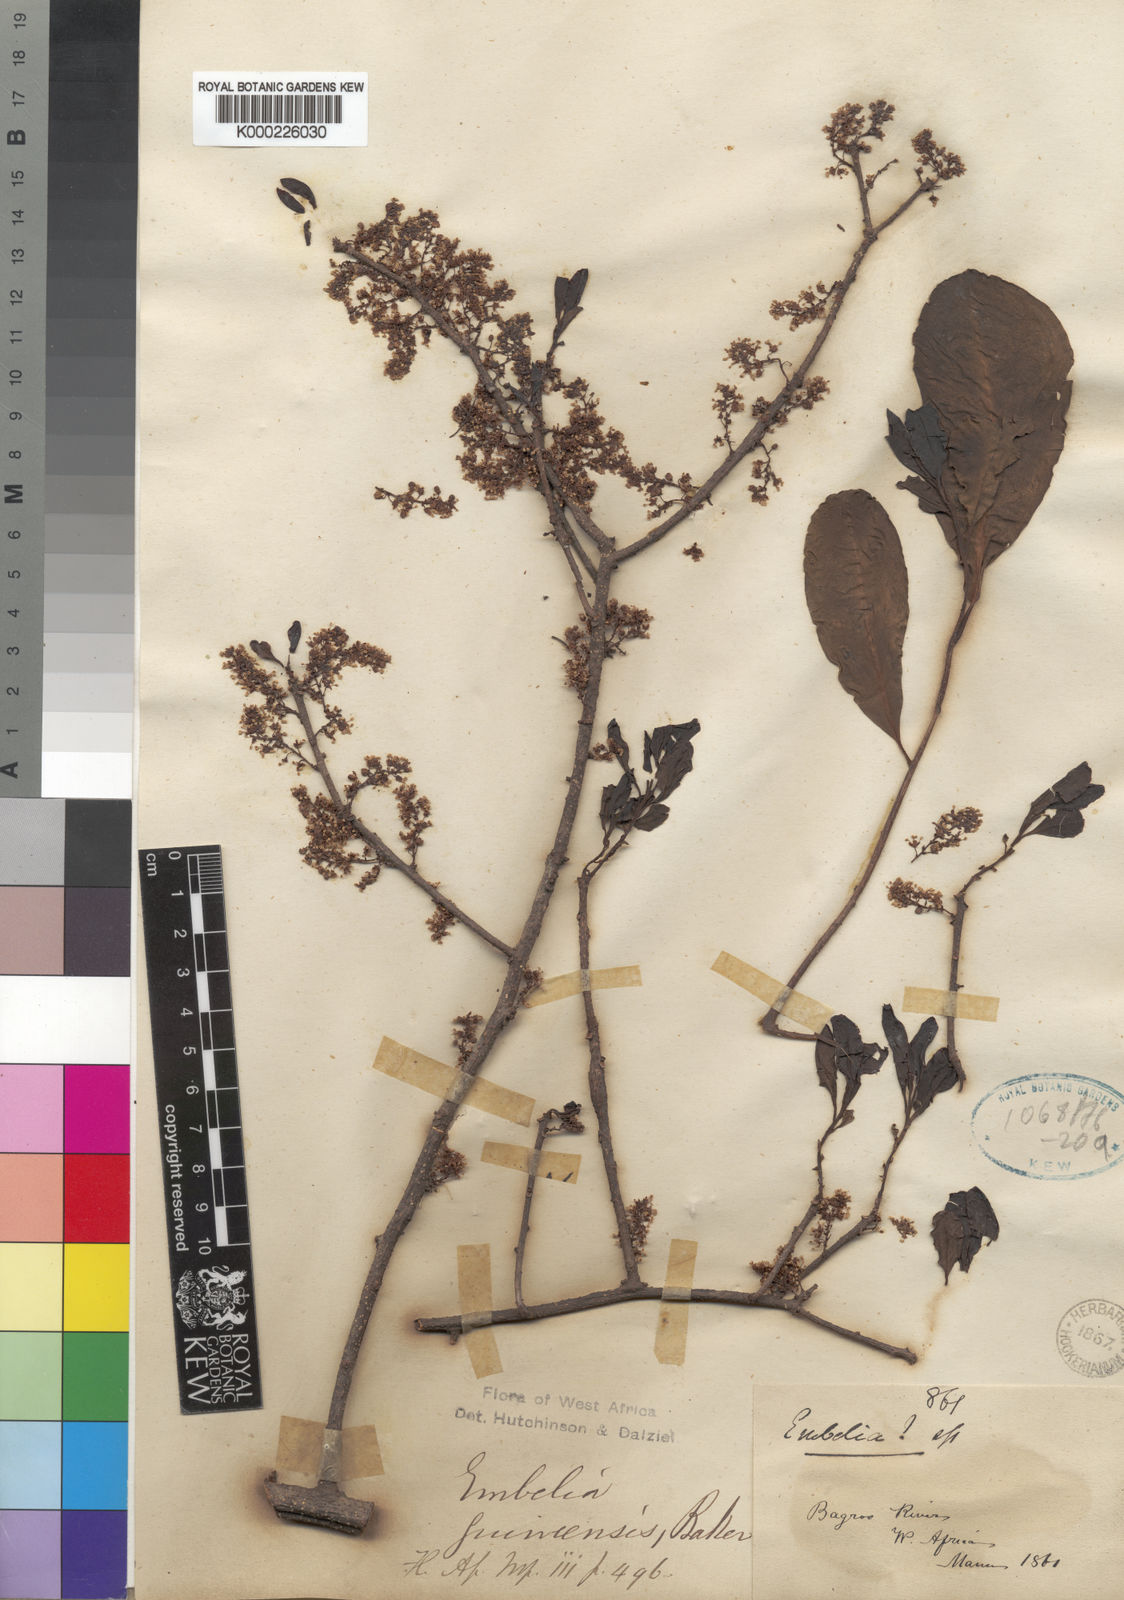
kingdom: Plantae
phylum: Tracheophyta
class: Magnoliopsida
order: Ericales
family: Primulaceae
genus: Embelia
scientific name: Embelia djalonensis
